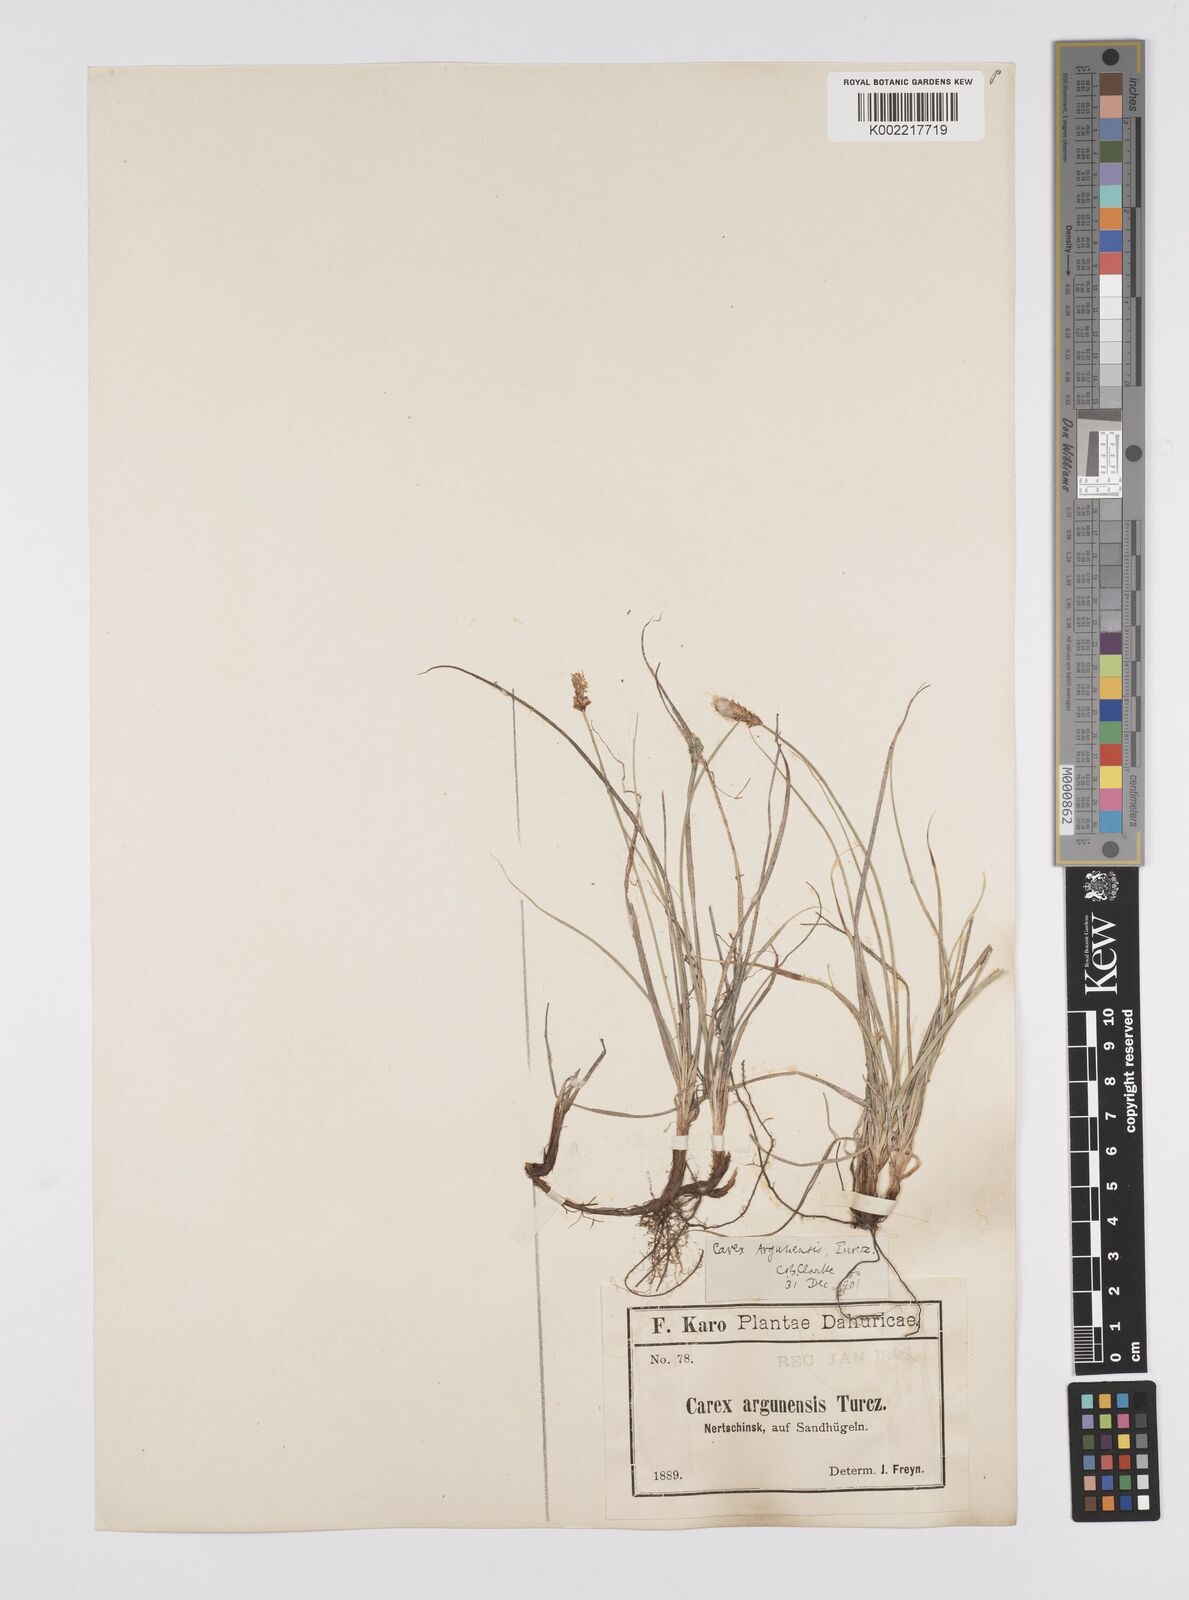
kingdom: Plantae
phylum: Tracheophyta
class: Liliopsida
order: Poales
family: Cyperaceae
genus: Carex
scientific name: Carex argunensis
